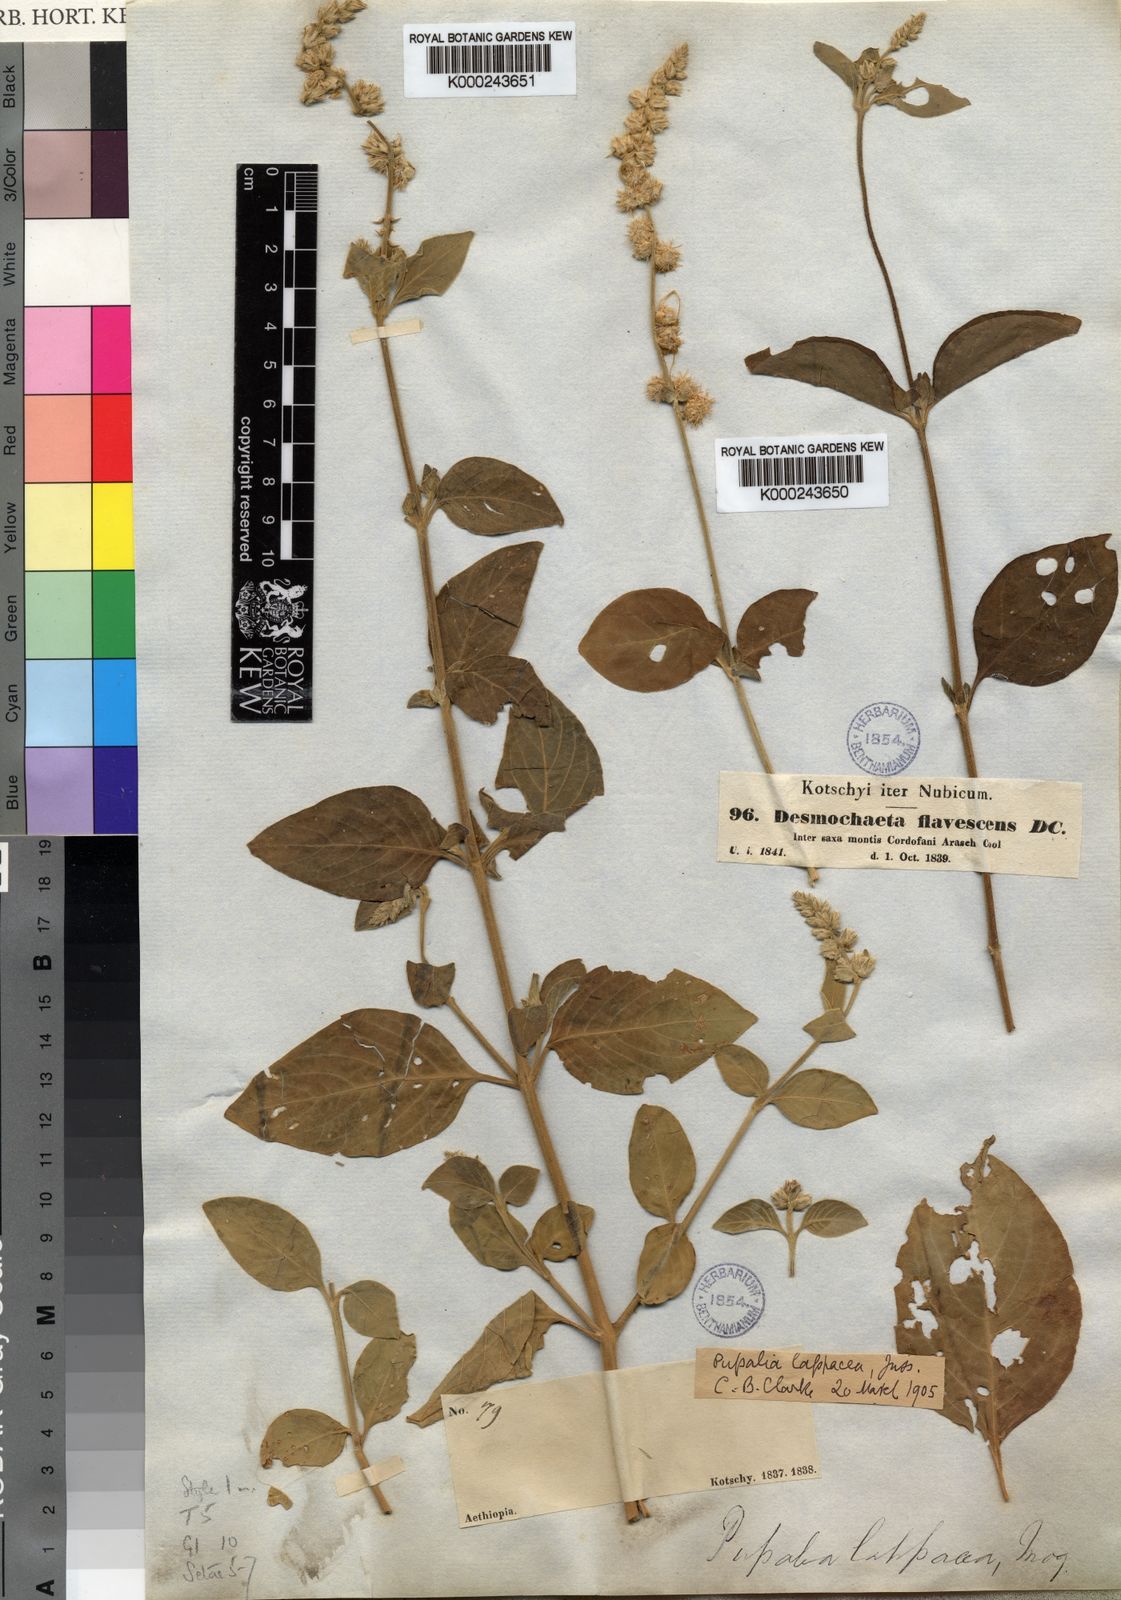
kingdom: Plantae
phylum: Tracheophyta
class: Magnoliopsida
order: Caryophyllales
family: Amaranthaceae
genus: Pupalia
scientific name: Pupalia
